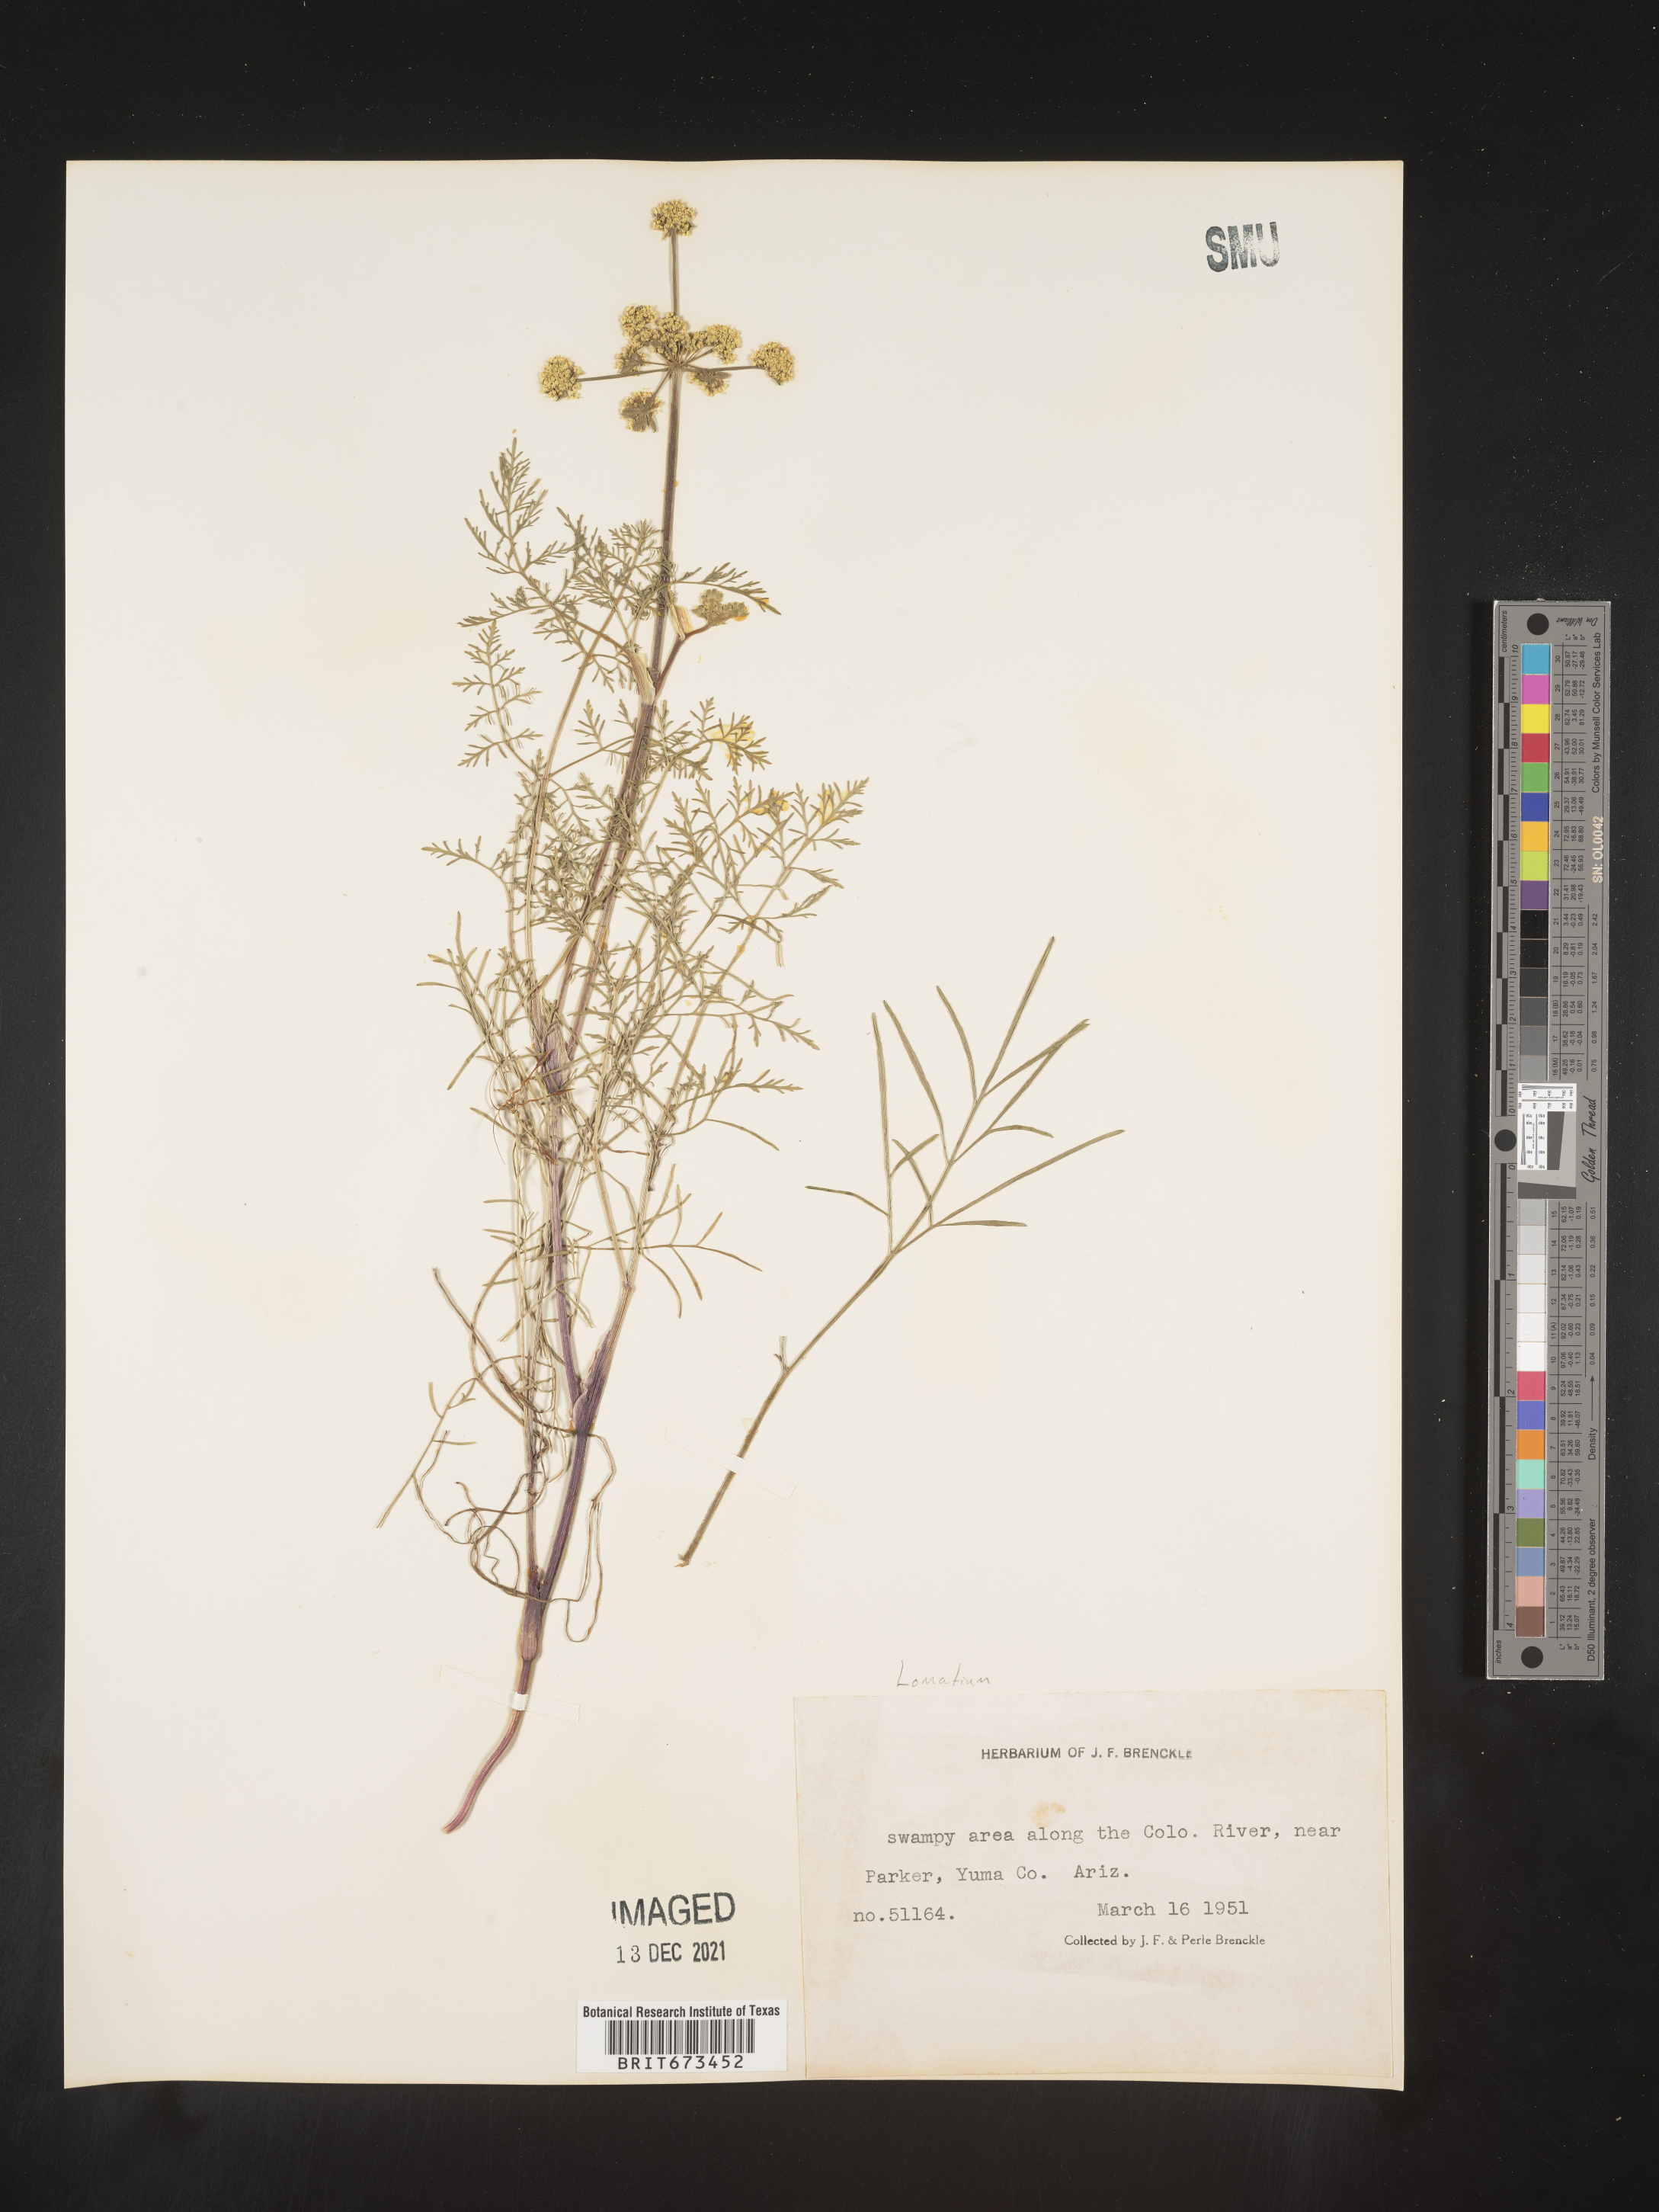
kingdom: Plantae
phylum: Tracheophyta
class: Magnoliopsida
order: Apiales
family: Apiaceae
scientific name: Apiaceae
